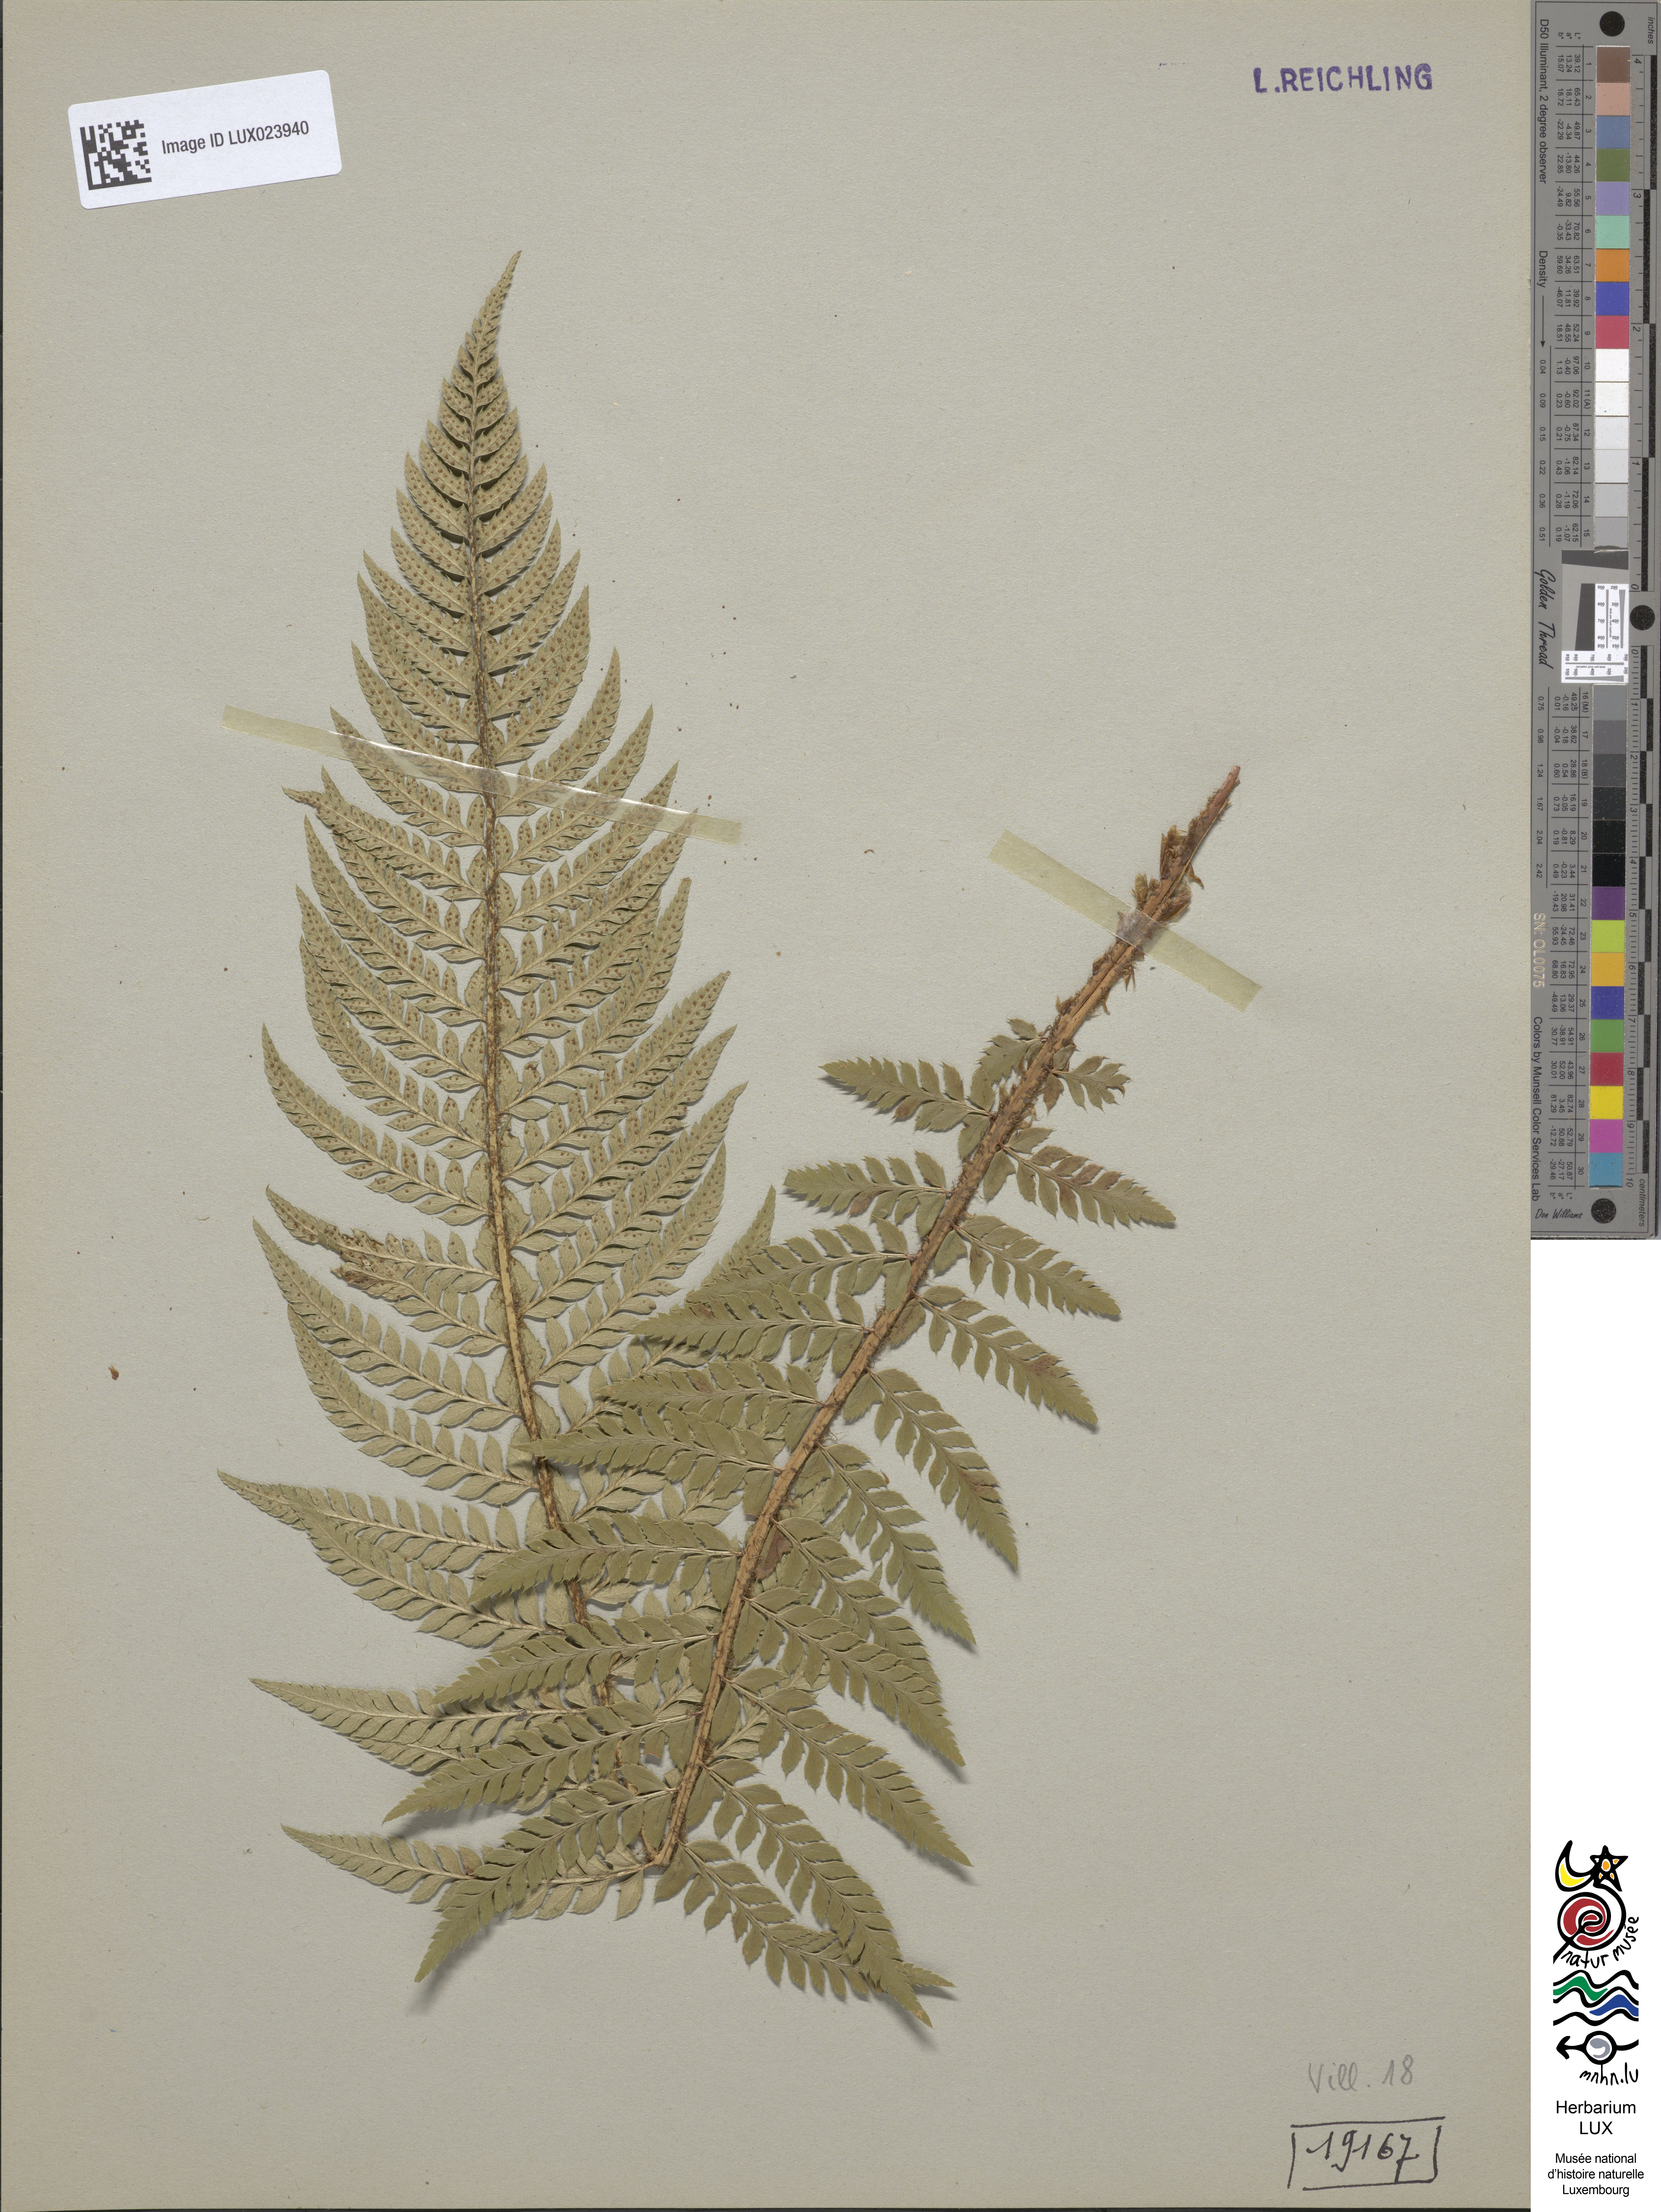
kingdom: Plantae
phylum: Tracheophyta
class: Polypodiopsida
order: Polypodiales
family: Dryopteridaceae
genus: Polystichum
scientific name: Polystichum aculeatum
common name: Hard shield-fern
